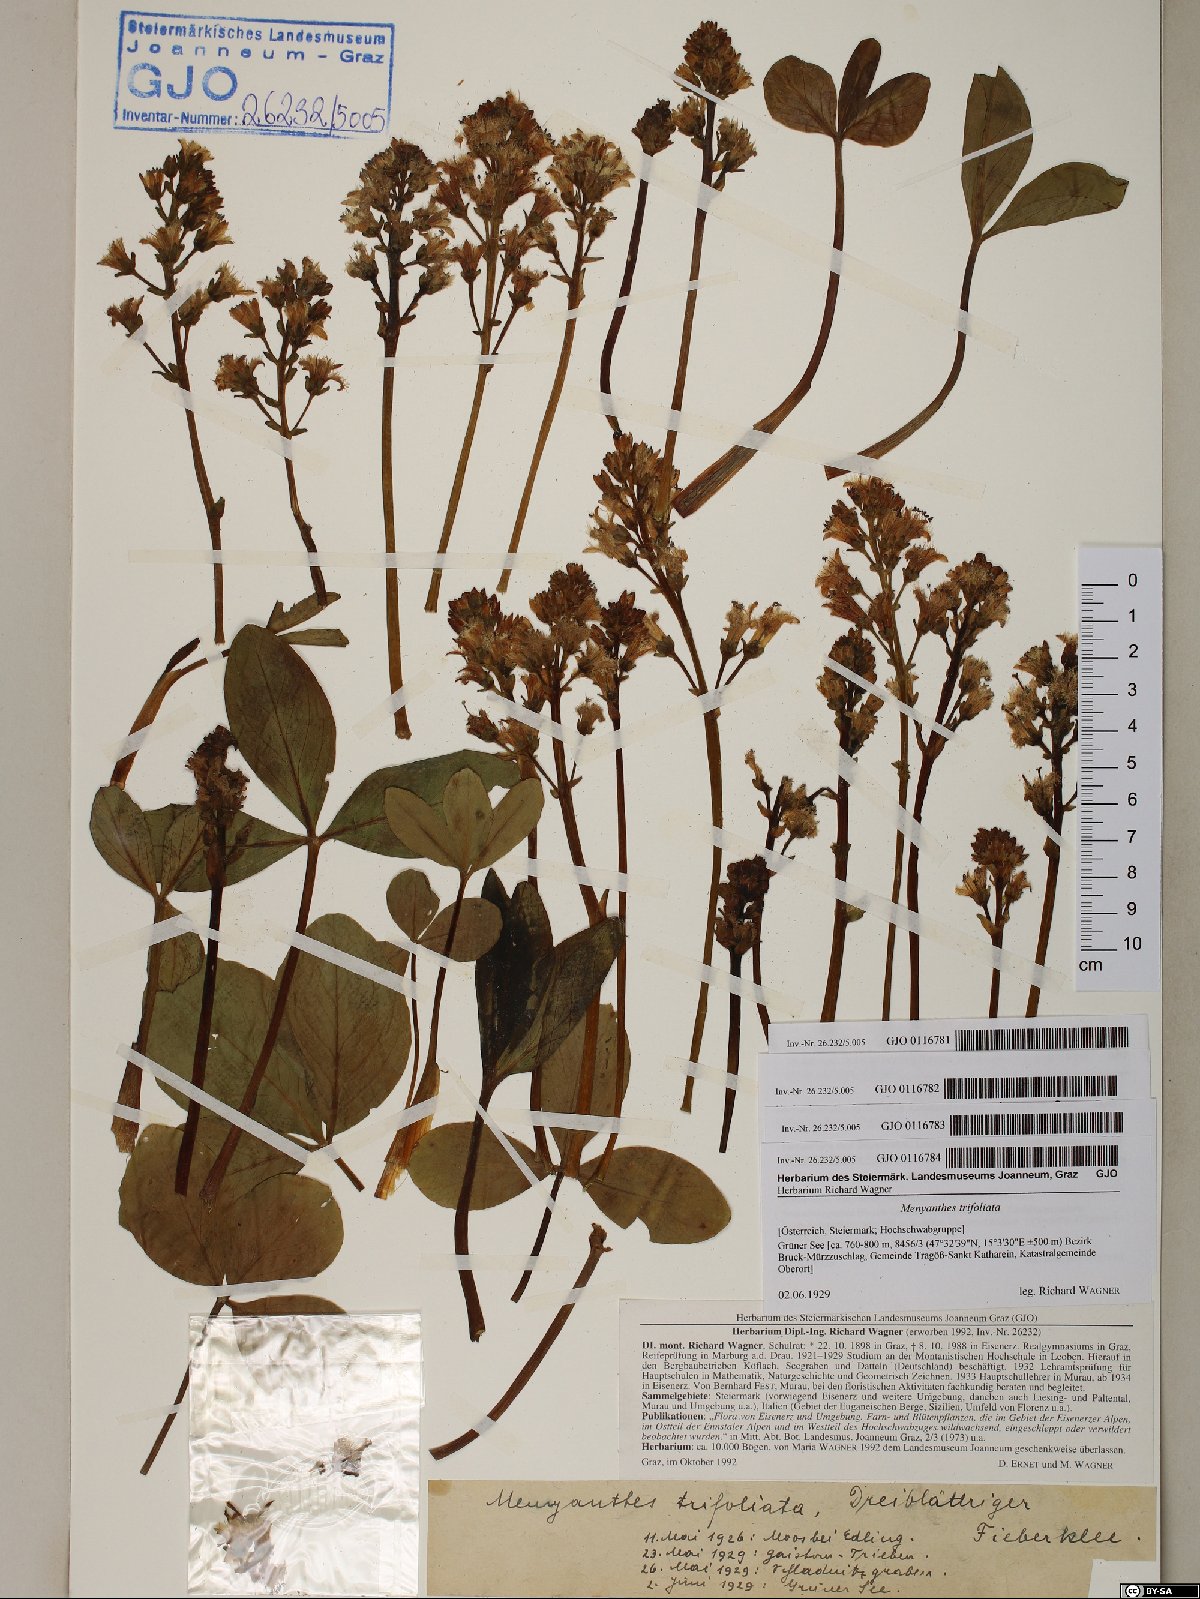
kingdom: Plantae
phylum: Tracheophyta
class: Magnoliopsida
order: Asterales
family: Menyanthaceae
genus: Menyanthes
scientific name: Menyanthes trifoliata
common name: Bogbean
